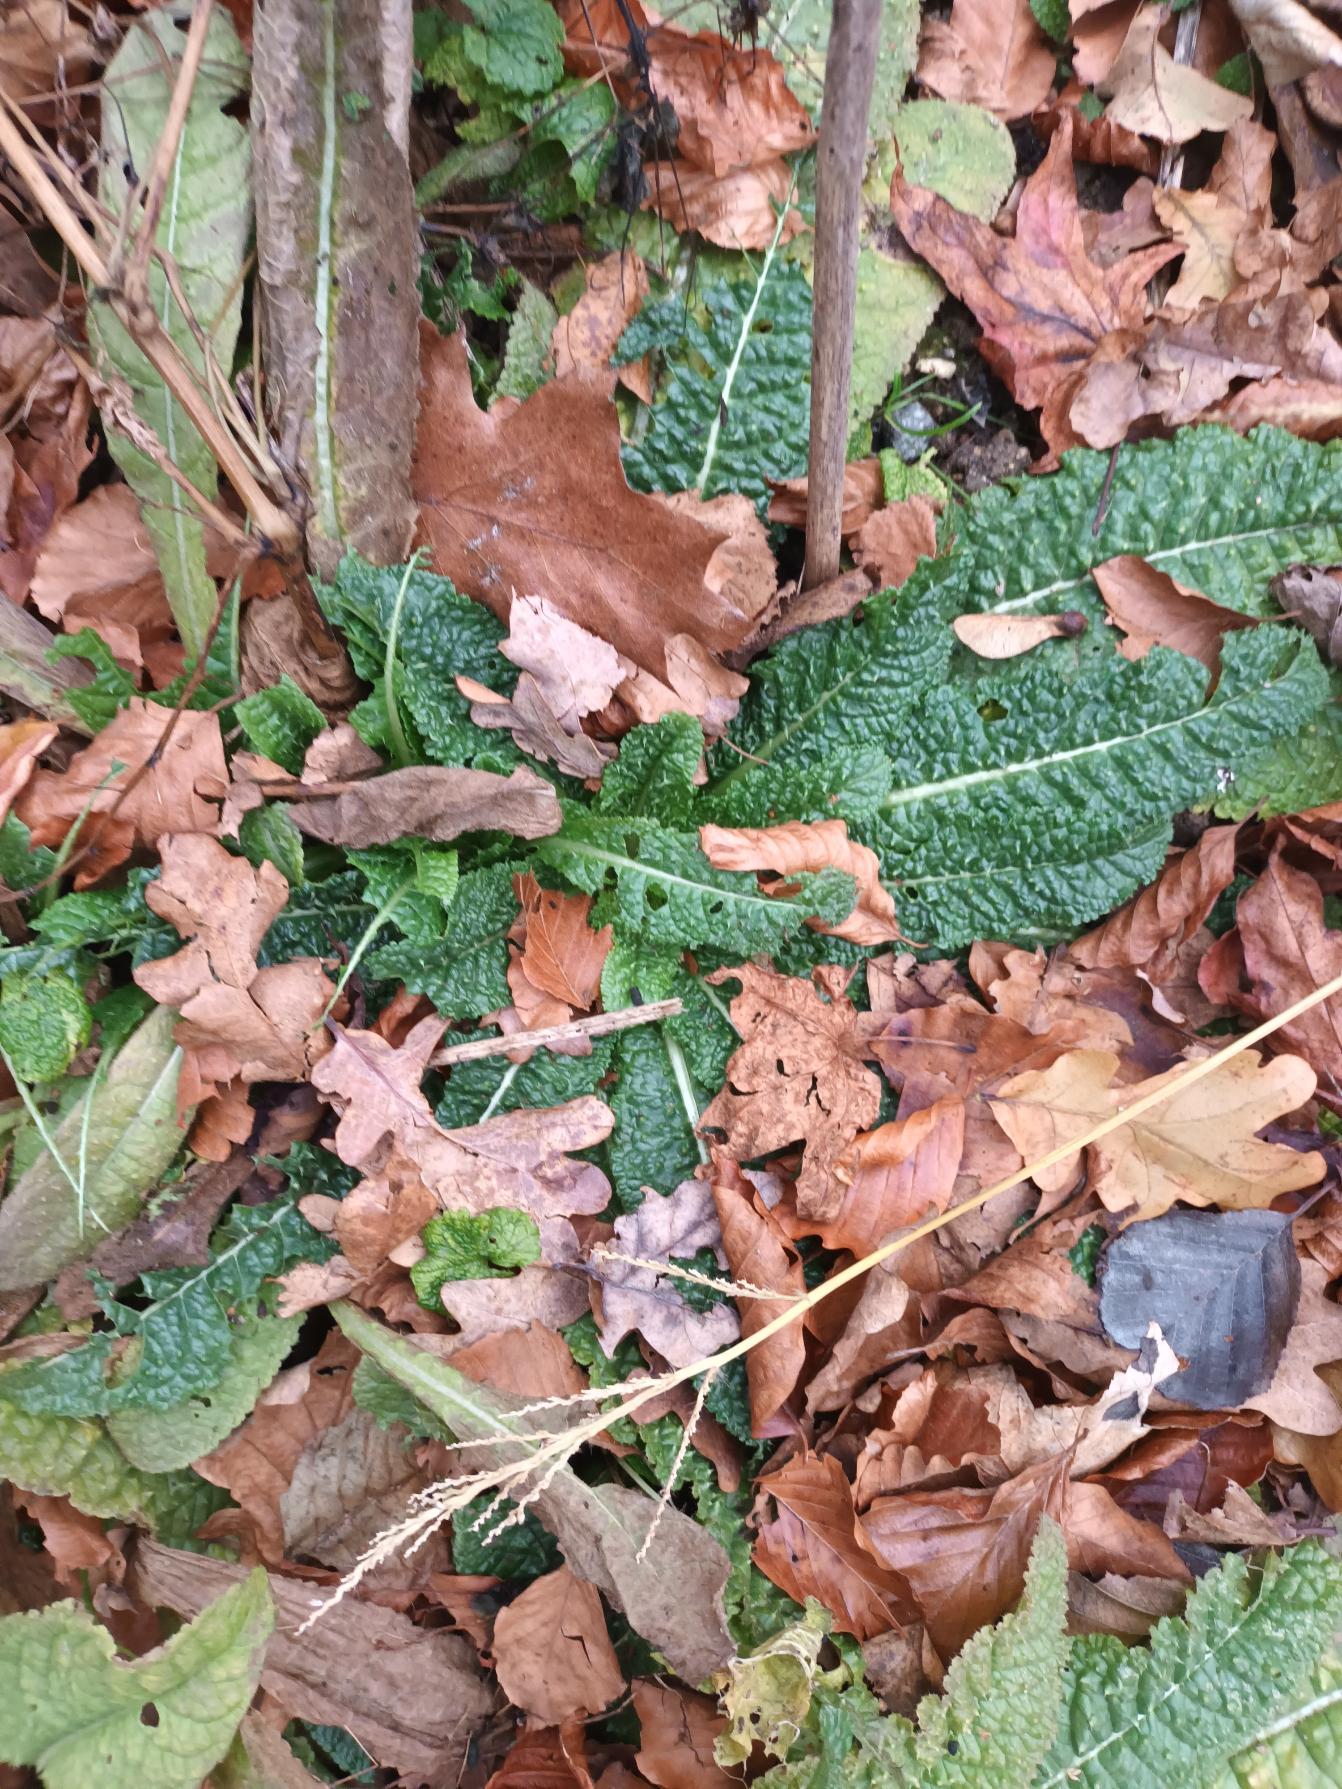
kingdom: Plantae
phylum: Tracheophyta
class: Magnoliopsida
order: Dipsacales
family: Caprifoliaceae
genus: Dipsacus
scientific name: Dipsacus fullonum
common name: Gærde-kartebolle
